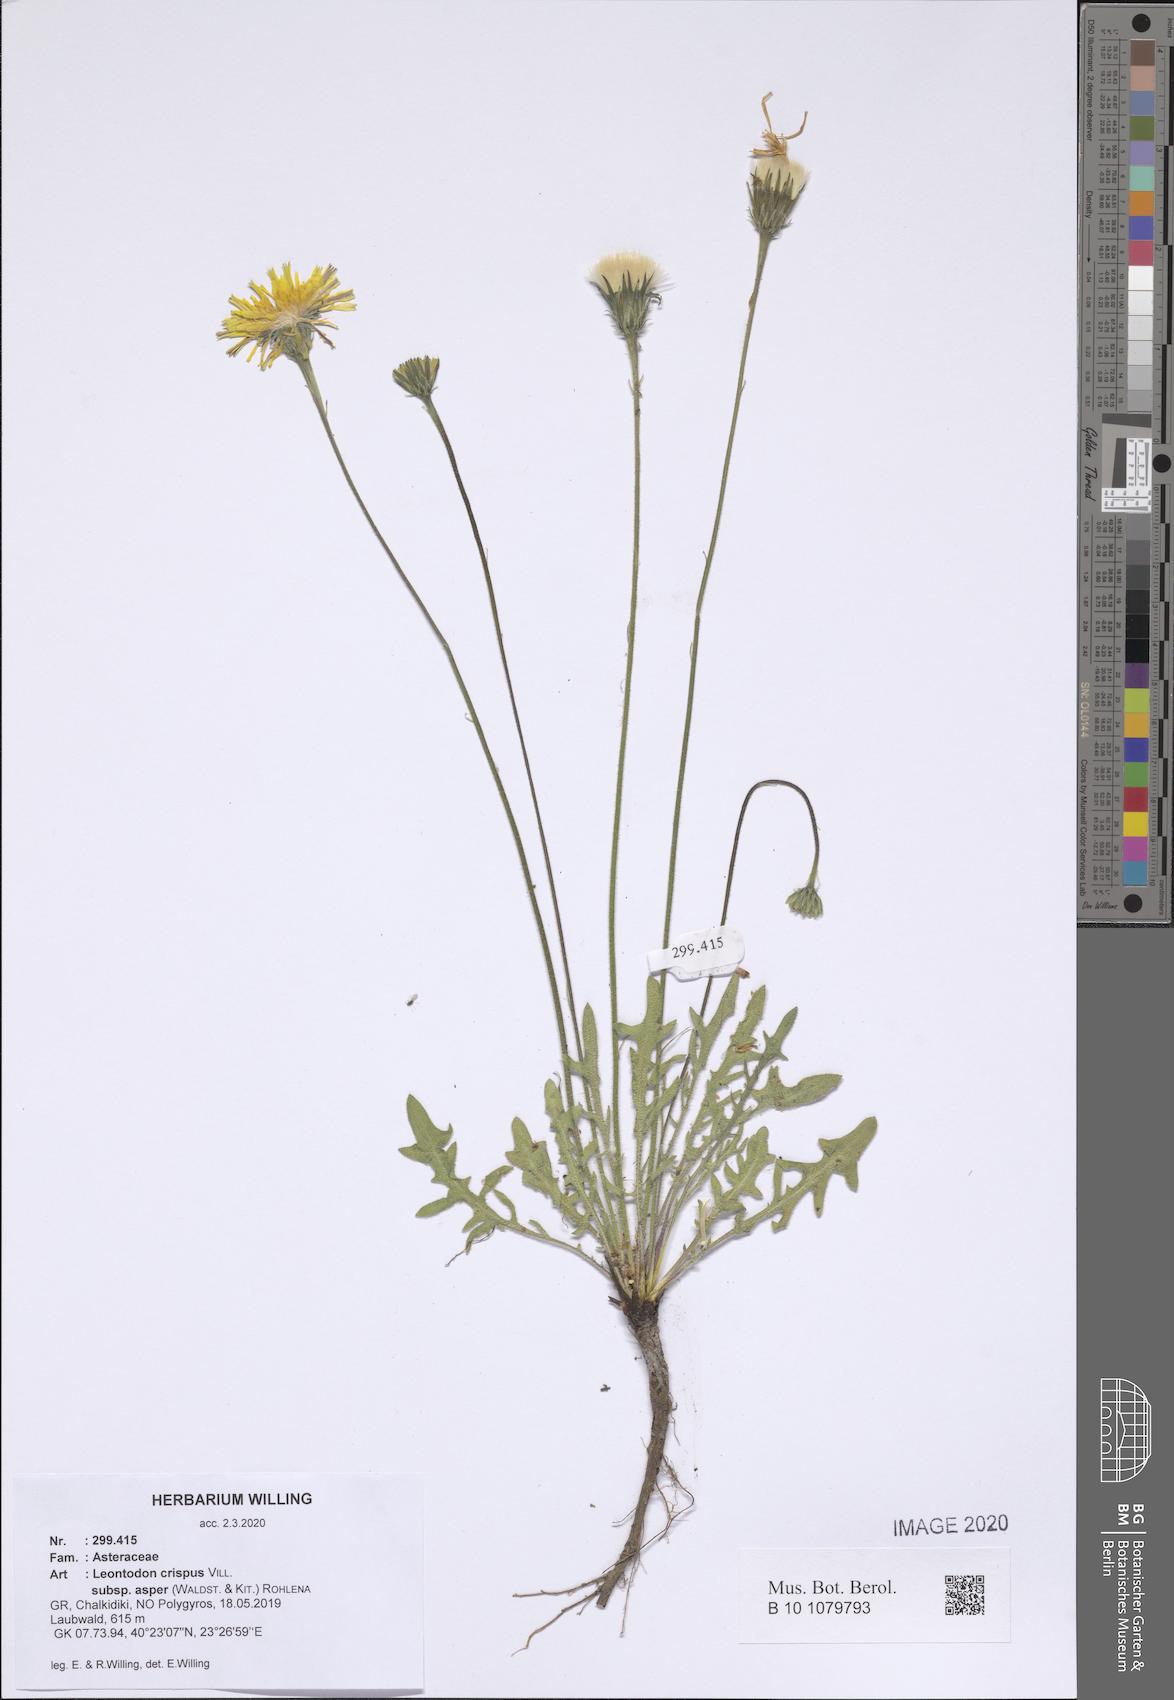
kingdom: Plantae
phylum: Tracheophyta
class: Magnoliopsida
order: Asterales
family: Asteraceae
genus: Leontodon
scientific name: Leontodon biscutellifolius
